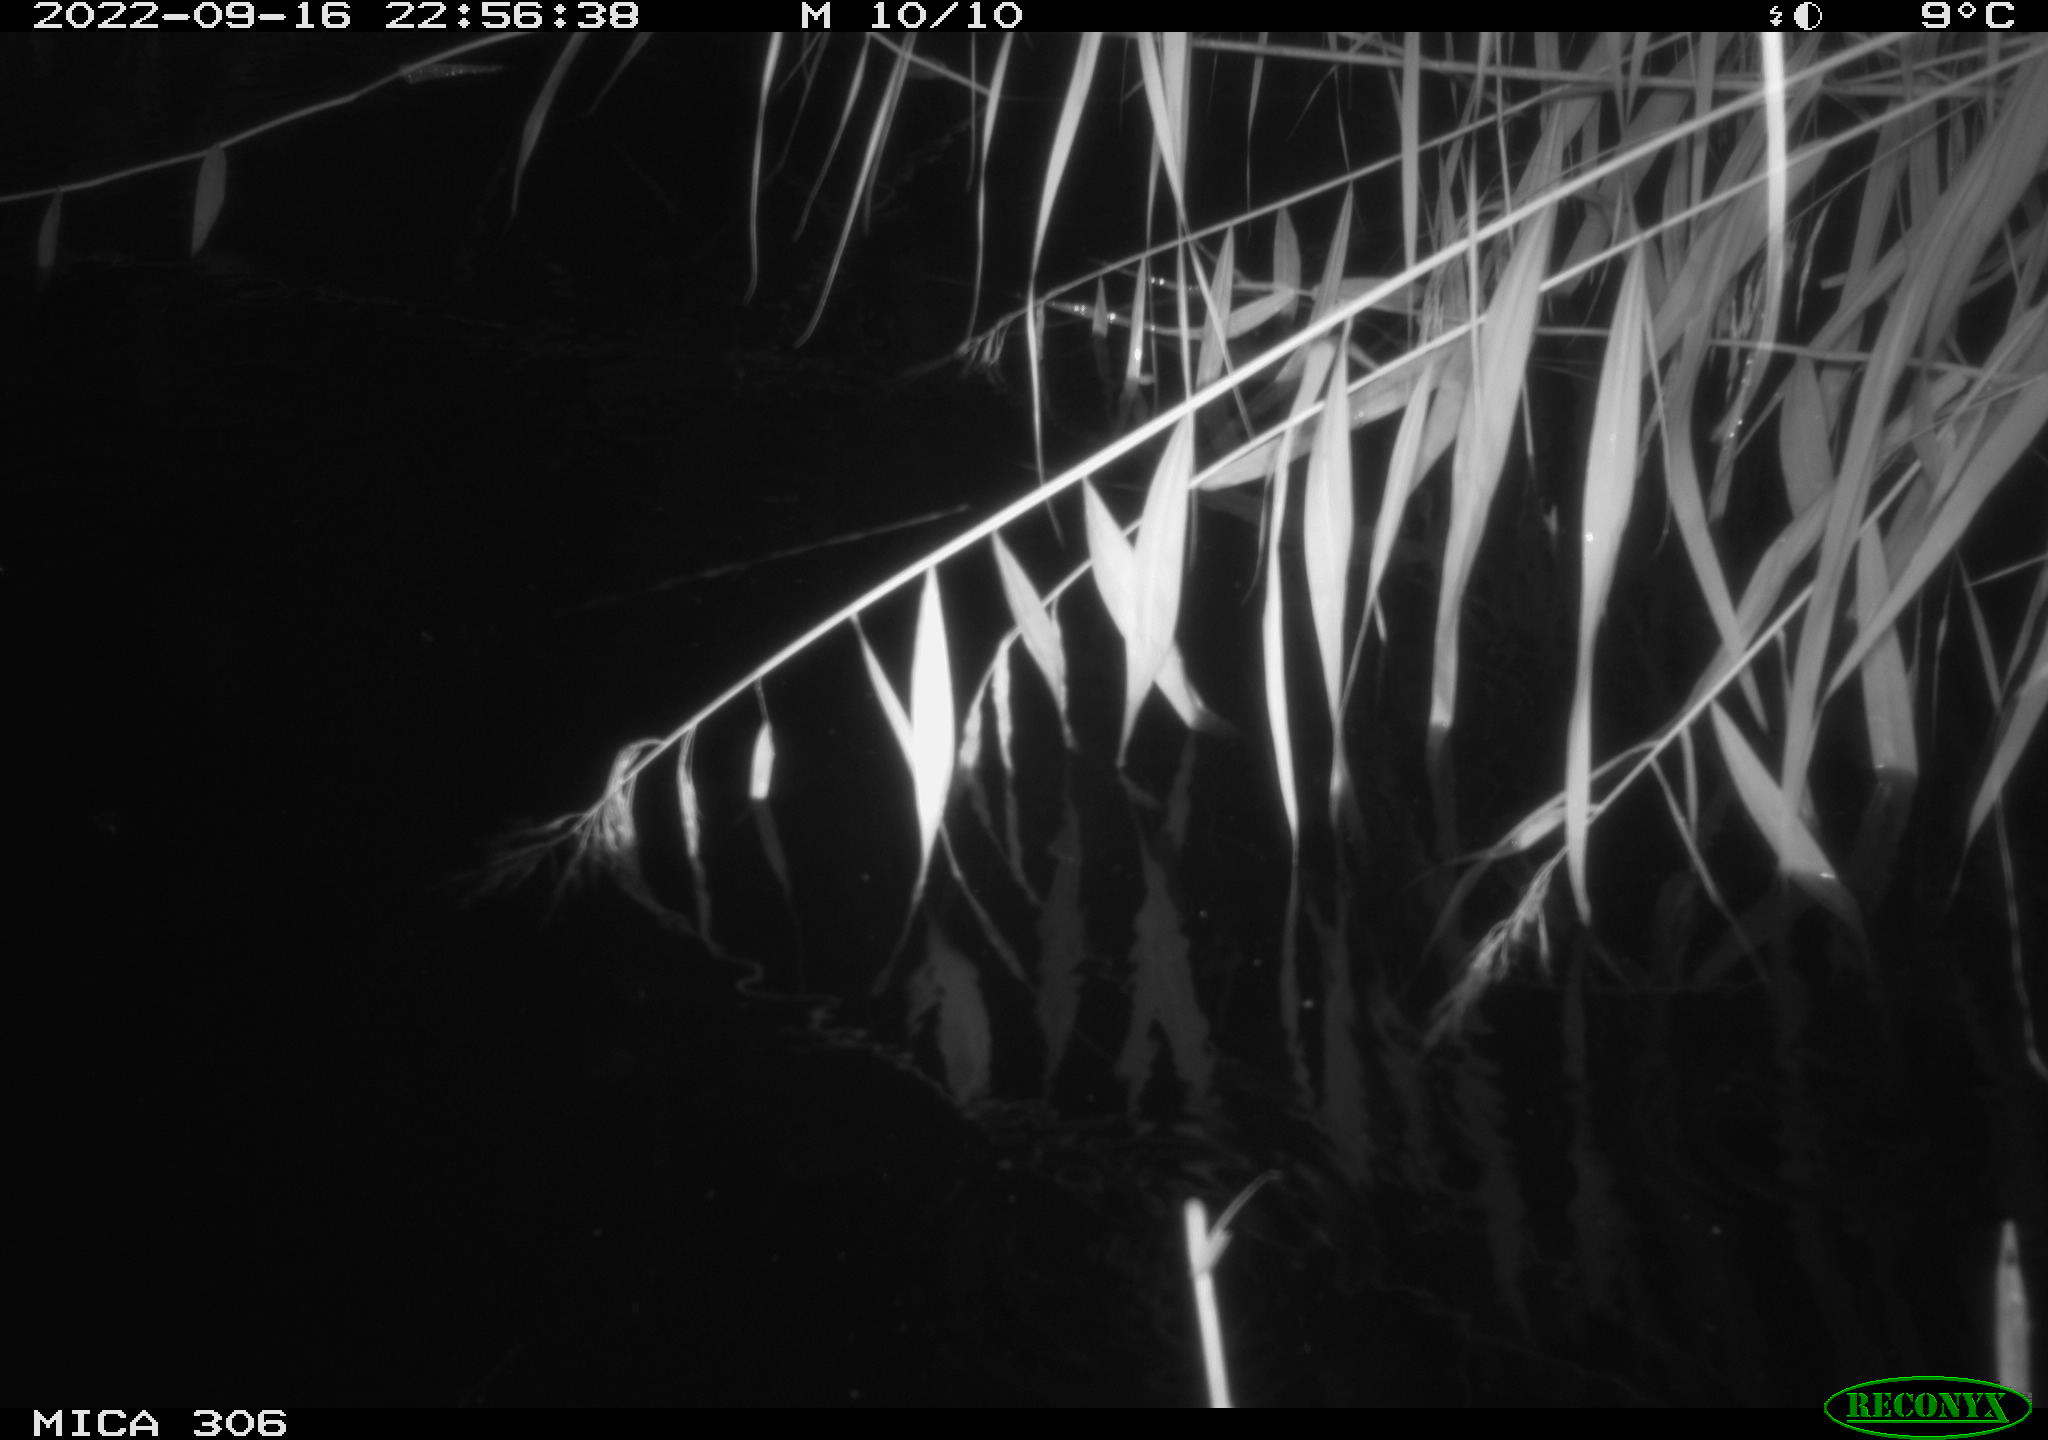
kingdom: Animalia
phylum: Chordata
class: Mammalia
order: Rodentia
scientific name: Rodentia
